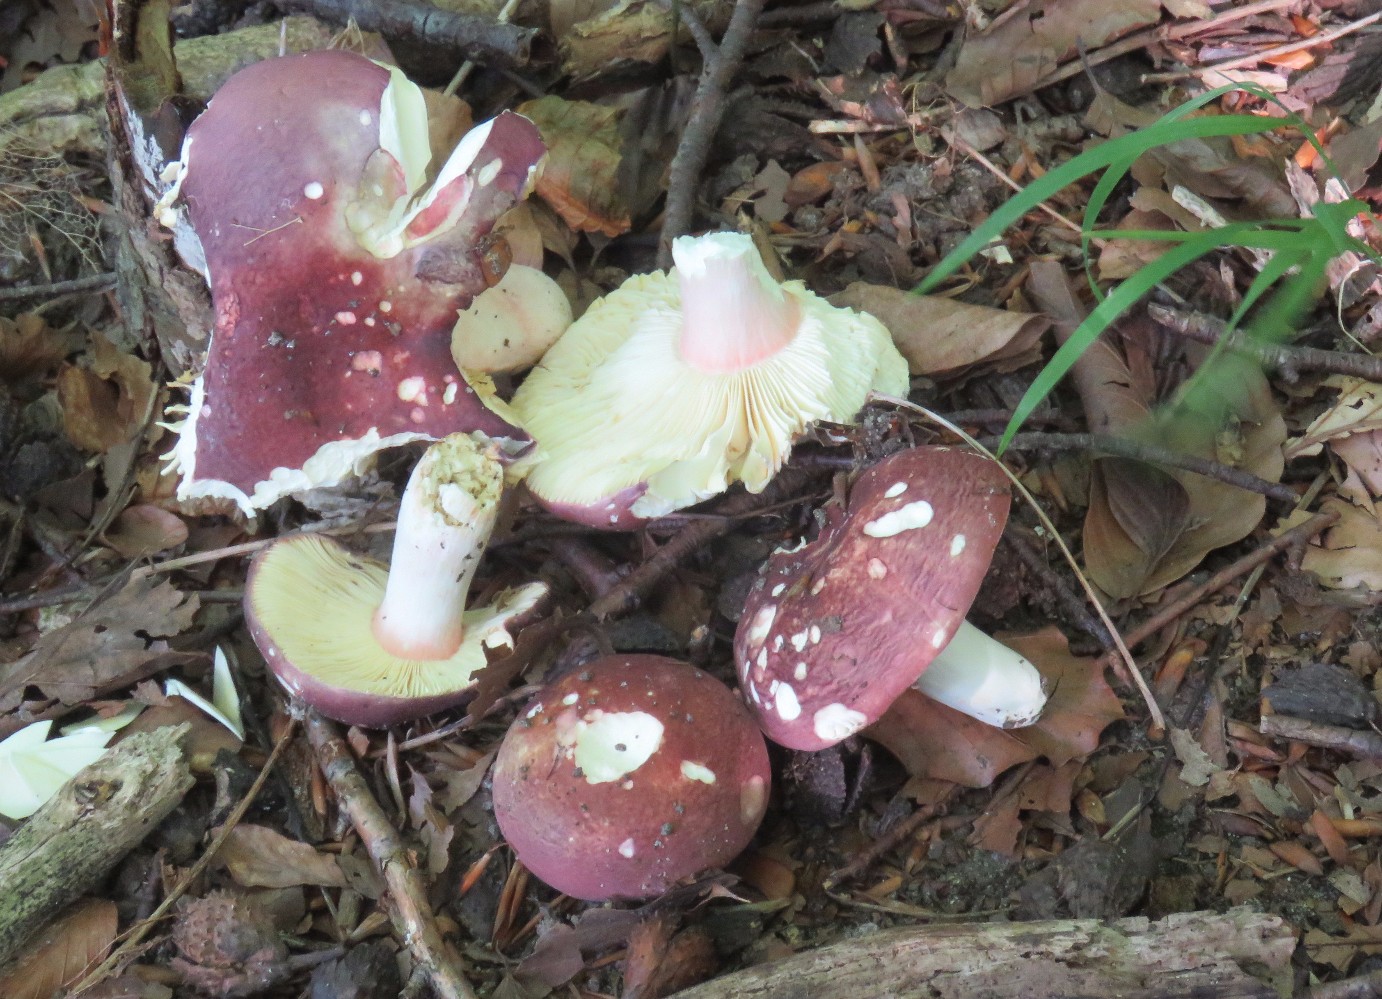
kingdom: Fungi
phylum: Basidiomycota
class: Agaricomycetes
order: Russulales
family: Russulaceae
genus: Russula
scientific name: Russula olivacea
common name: stor skørhat
